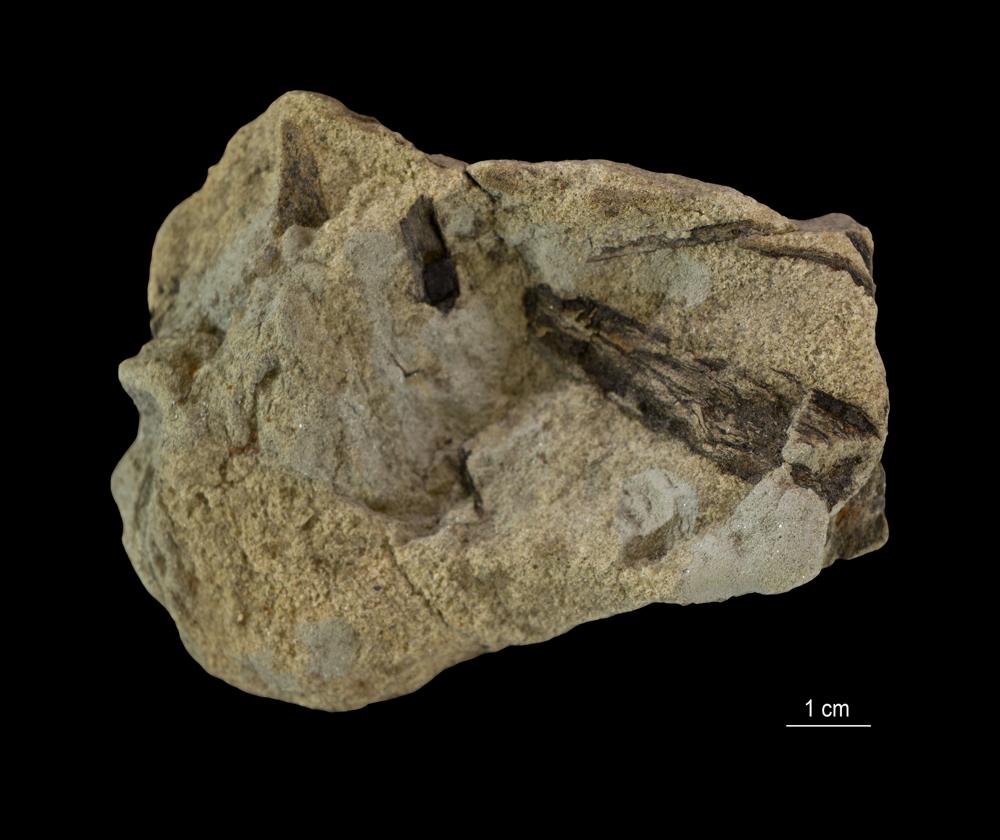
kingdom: Plantae
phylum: Tracheophyta
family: Aneurophytaceae
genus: Aneurophyton
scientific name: Aneurophyton
